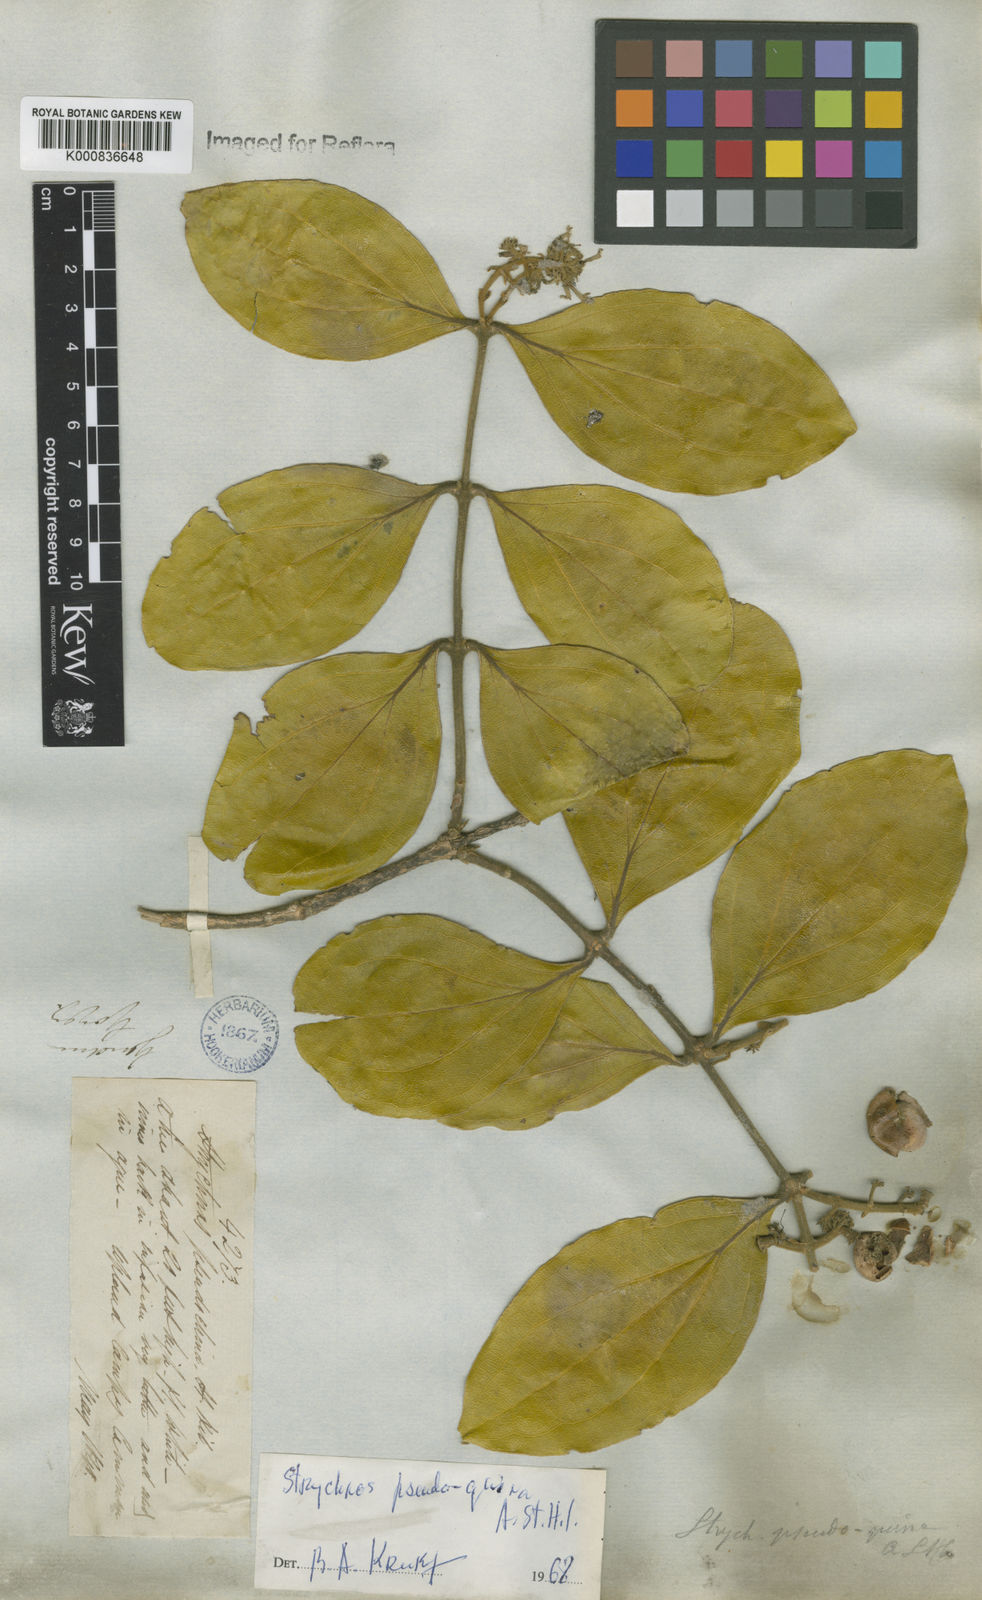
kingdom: Plantae
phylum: Tracheophyta
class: Magnoliopsida
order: Gentianales
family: Loganiaceae
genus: Strychnos
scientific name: Strychnos pseudoquina
